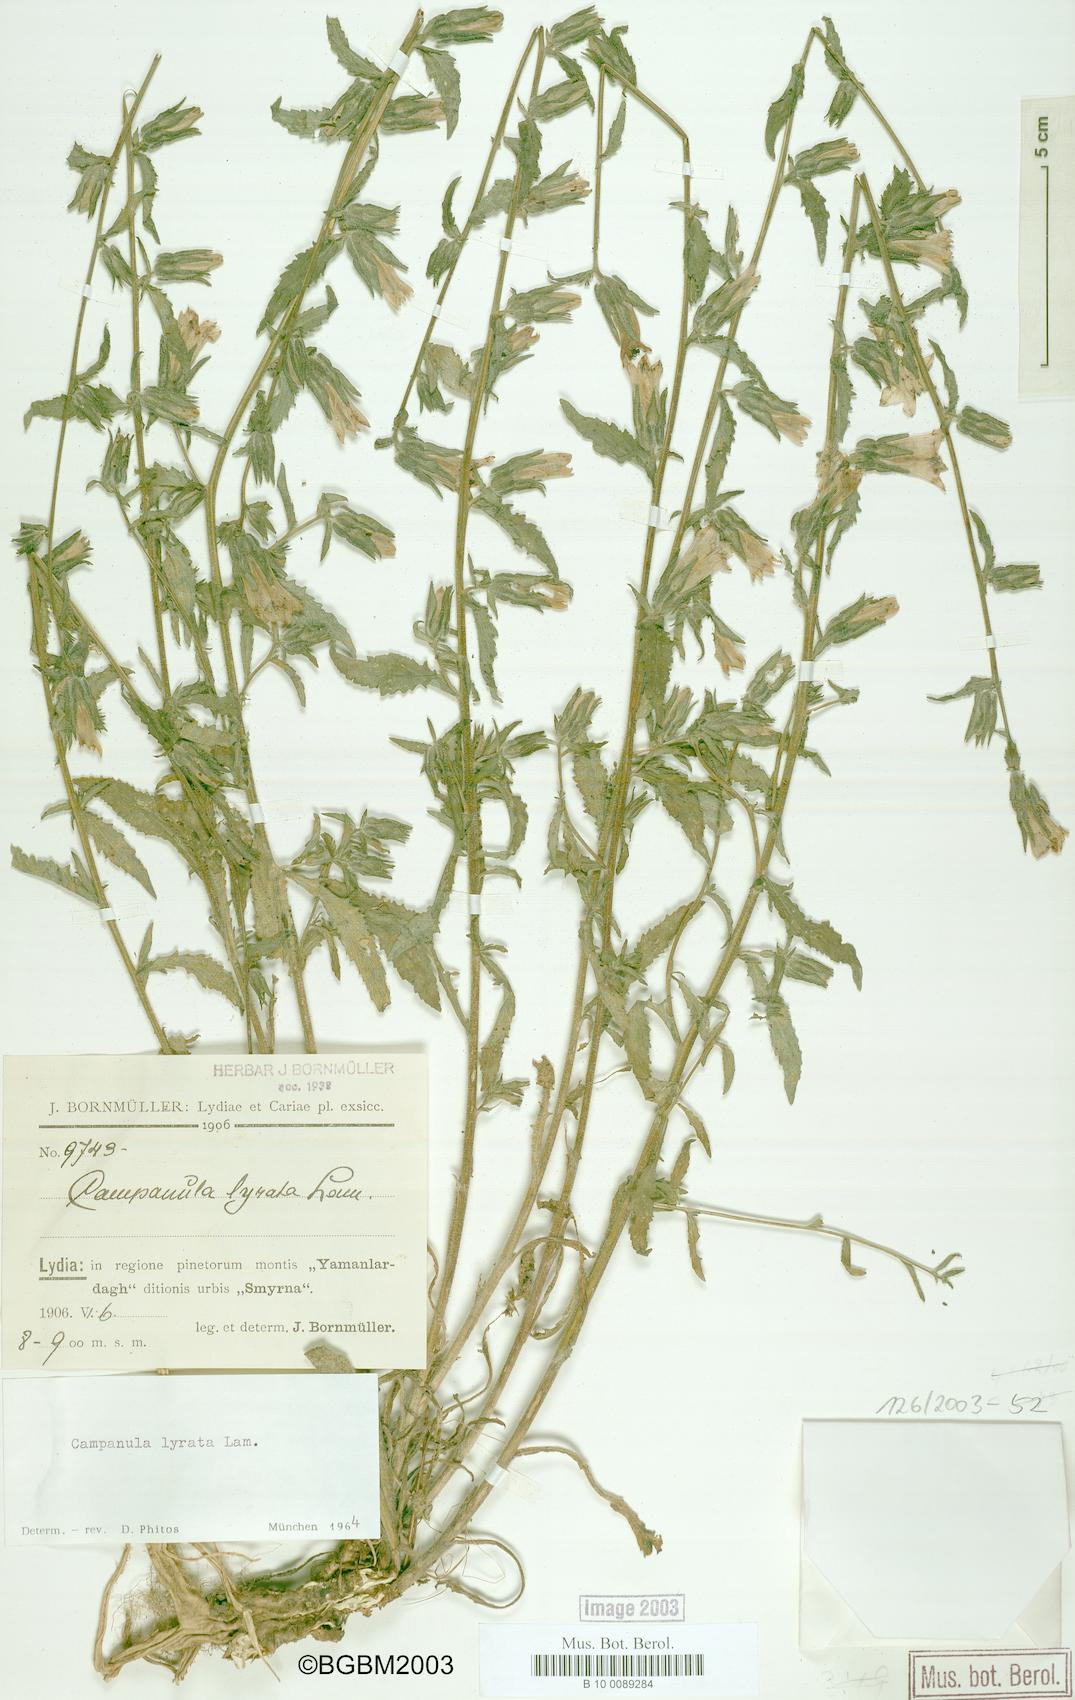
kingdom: Plantae
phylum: Tracheophyta
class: Magnoliopsida
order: Asterales
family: Campanulaceae
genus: Campanula
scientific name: Campanula lyrata
